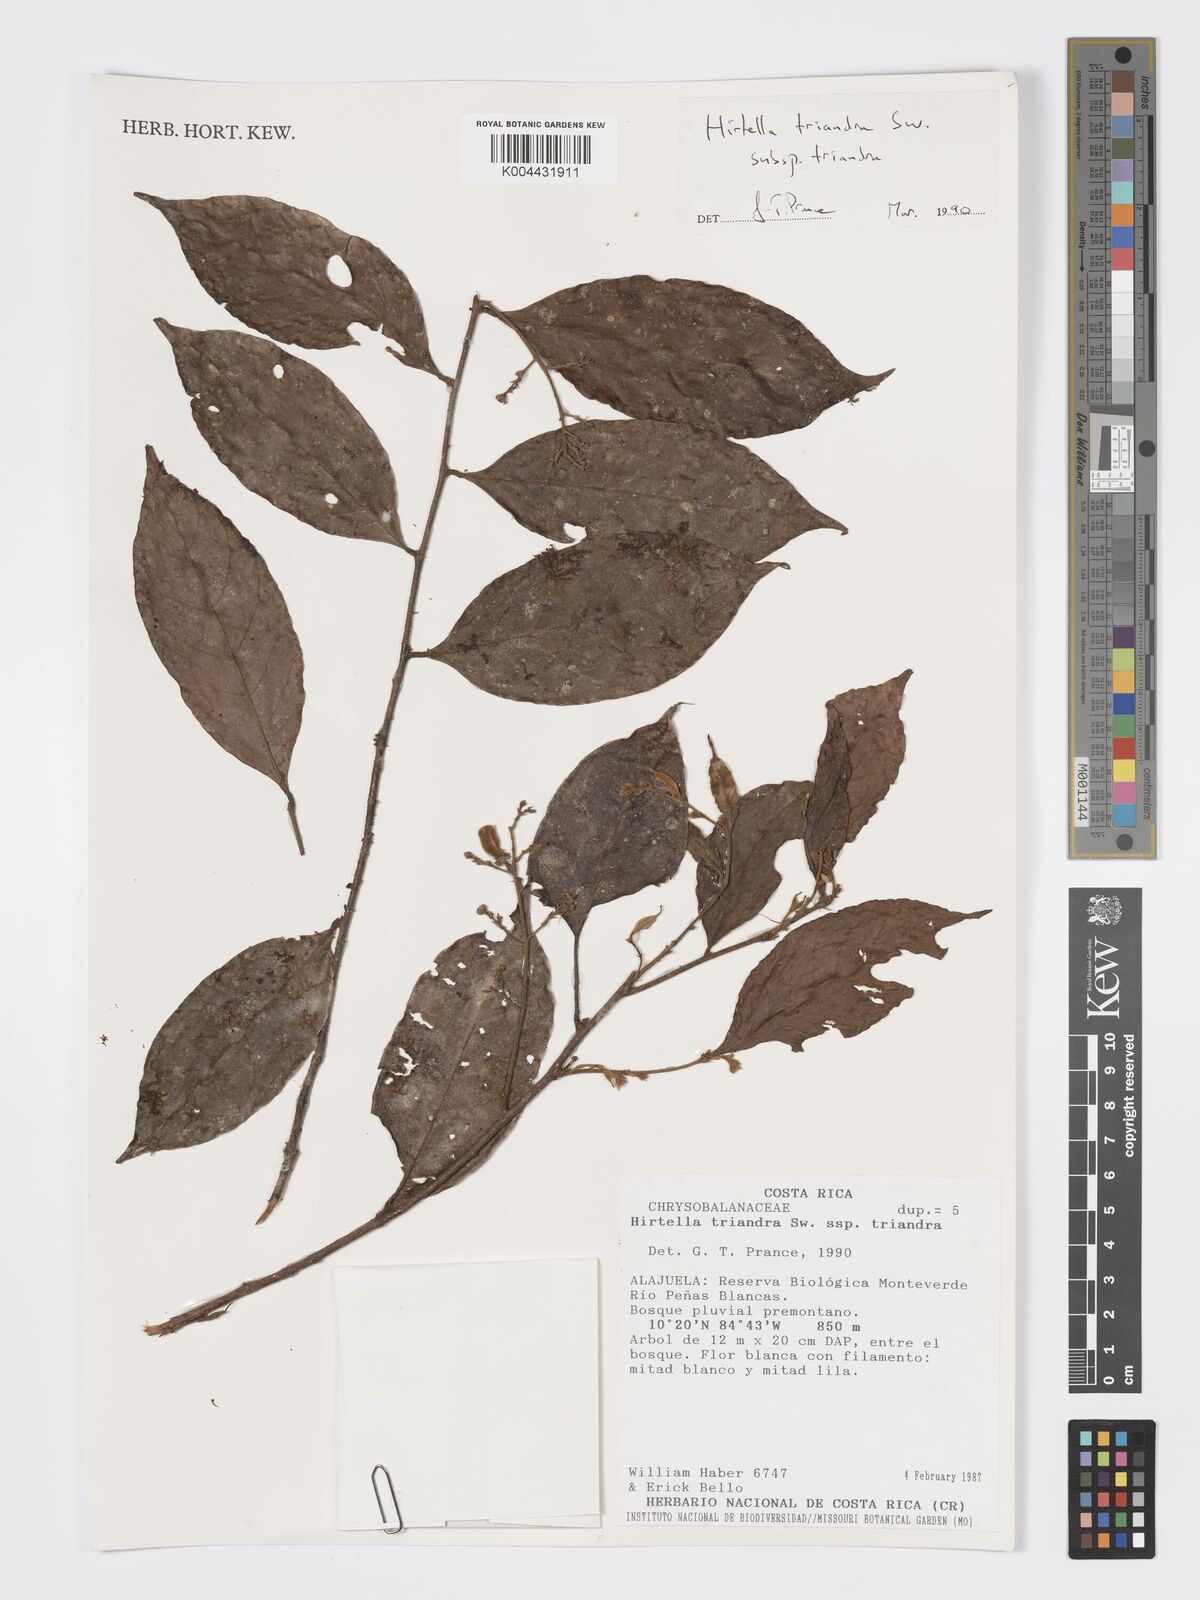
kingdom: Plantae
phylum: Tracheophyta
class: Magnoliopsida
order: Malpighiales
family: Chrysobalanaceae
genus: Hirtella
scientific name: Hirtella triandra
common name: Hairy plum
